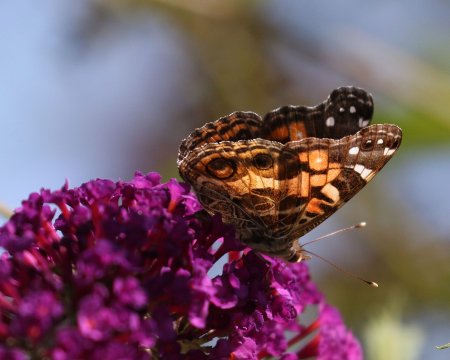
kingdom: Animalia
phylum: Arthropoda
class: Insecta
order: Lepidoptera
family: Nymphalidae
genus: Vanessa
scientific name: Vanessa virginiensis
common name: American Lady
